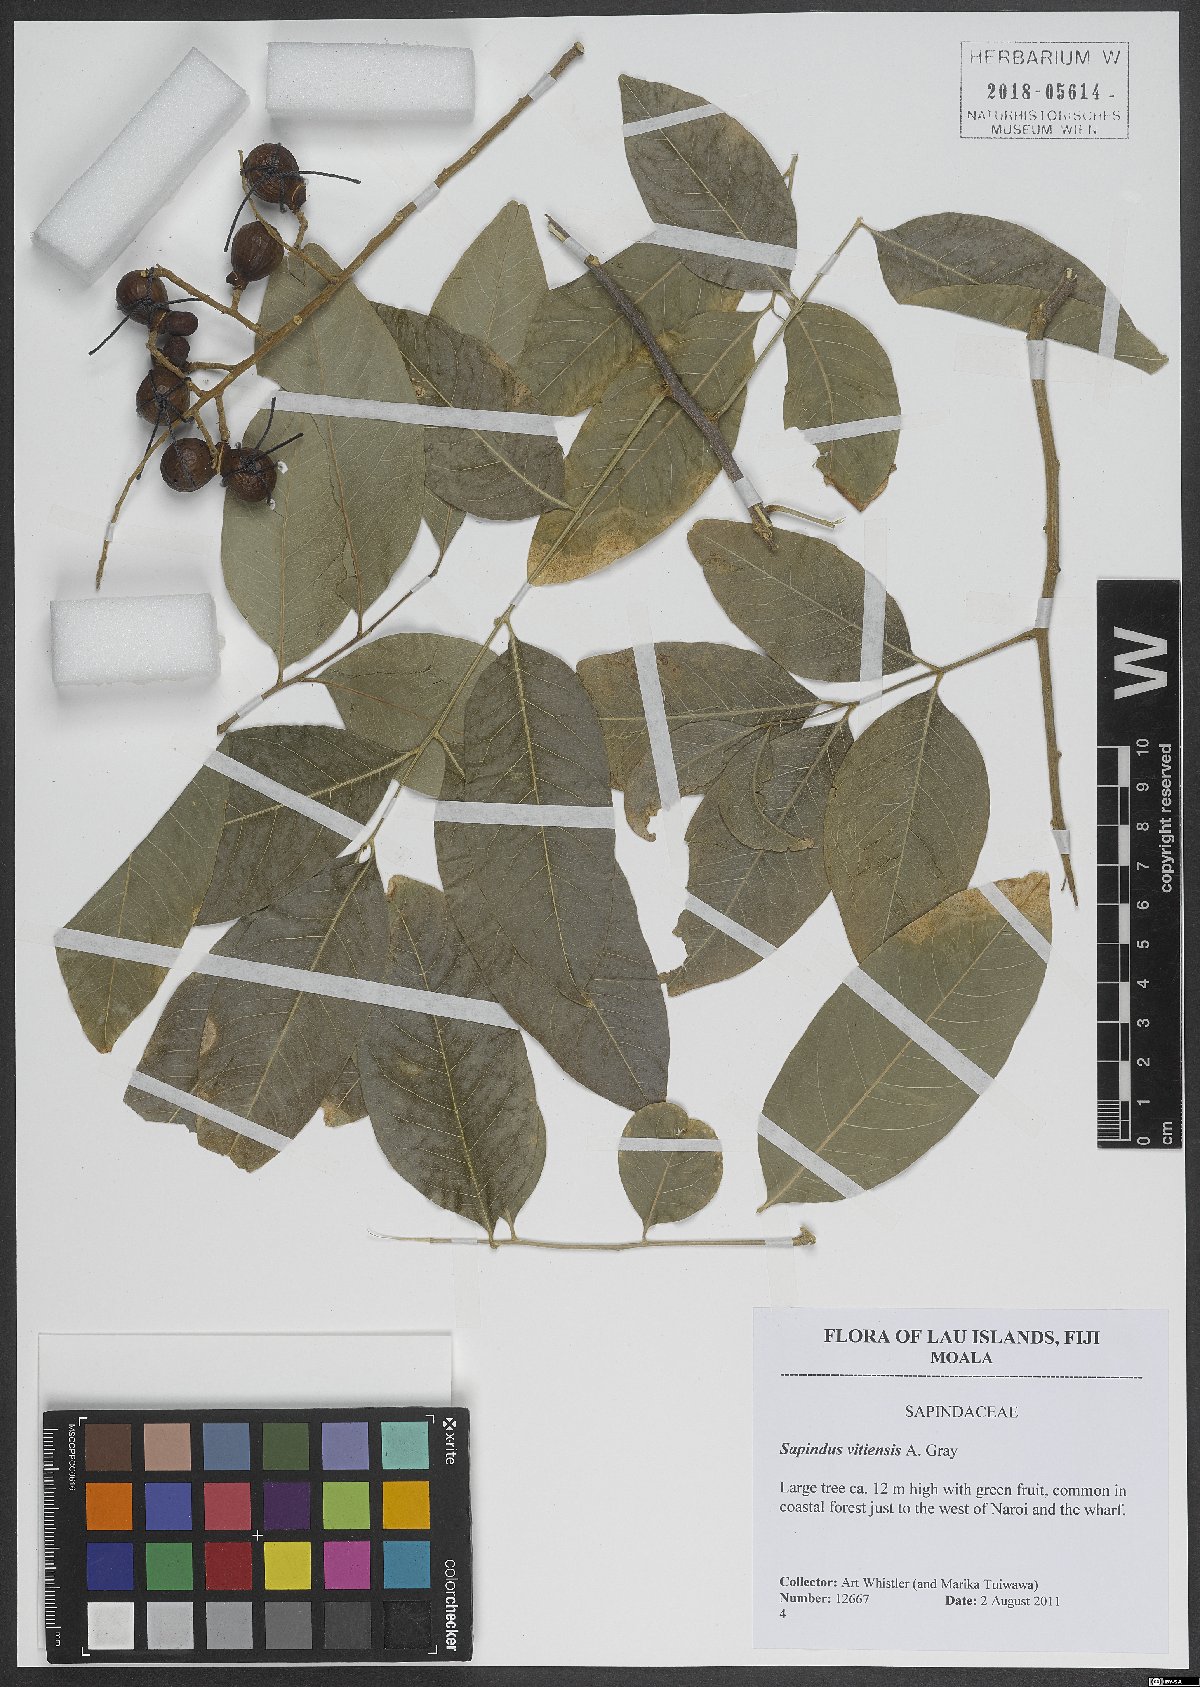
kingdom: Plantae
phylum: Tracheophyta
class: Magnoliopsida
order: Sapindales
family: Sapindaceae
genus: Sapindus
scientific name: Sapindus saponaria
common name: Wingleaf soapberry
